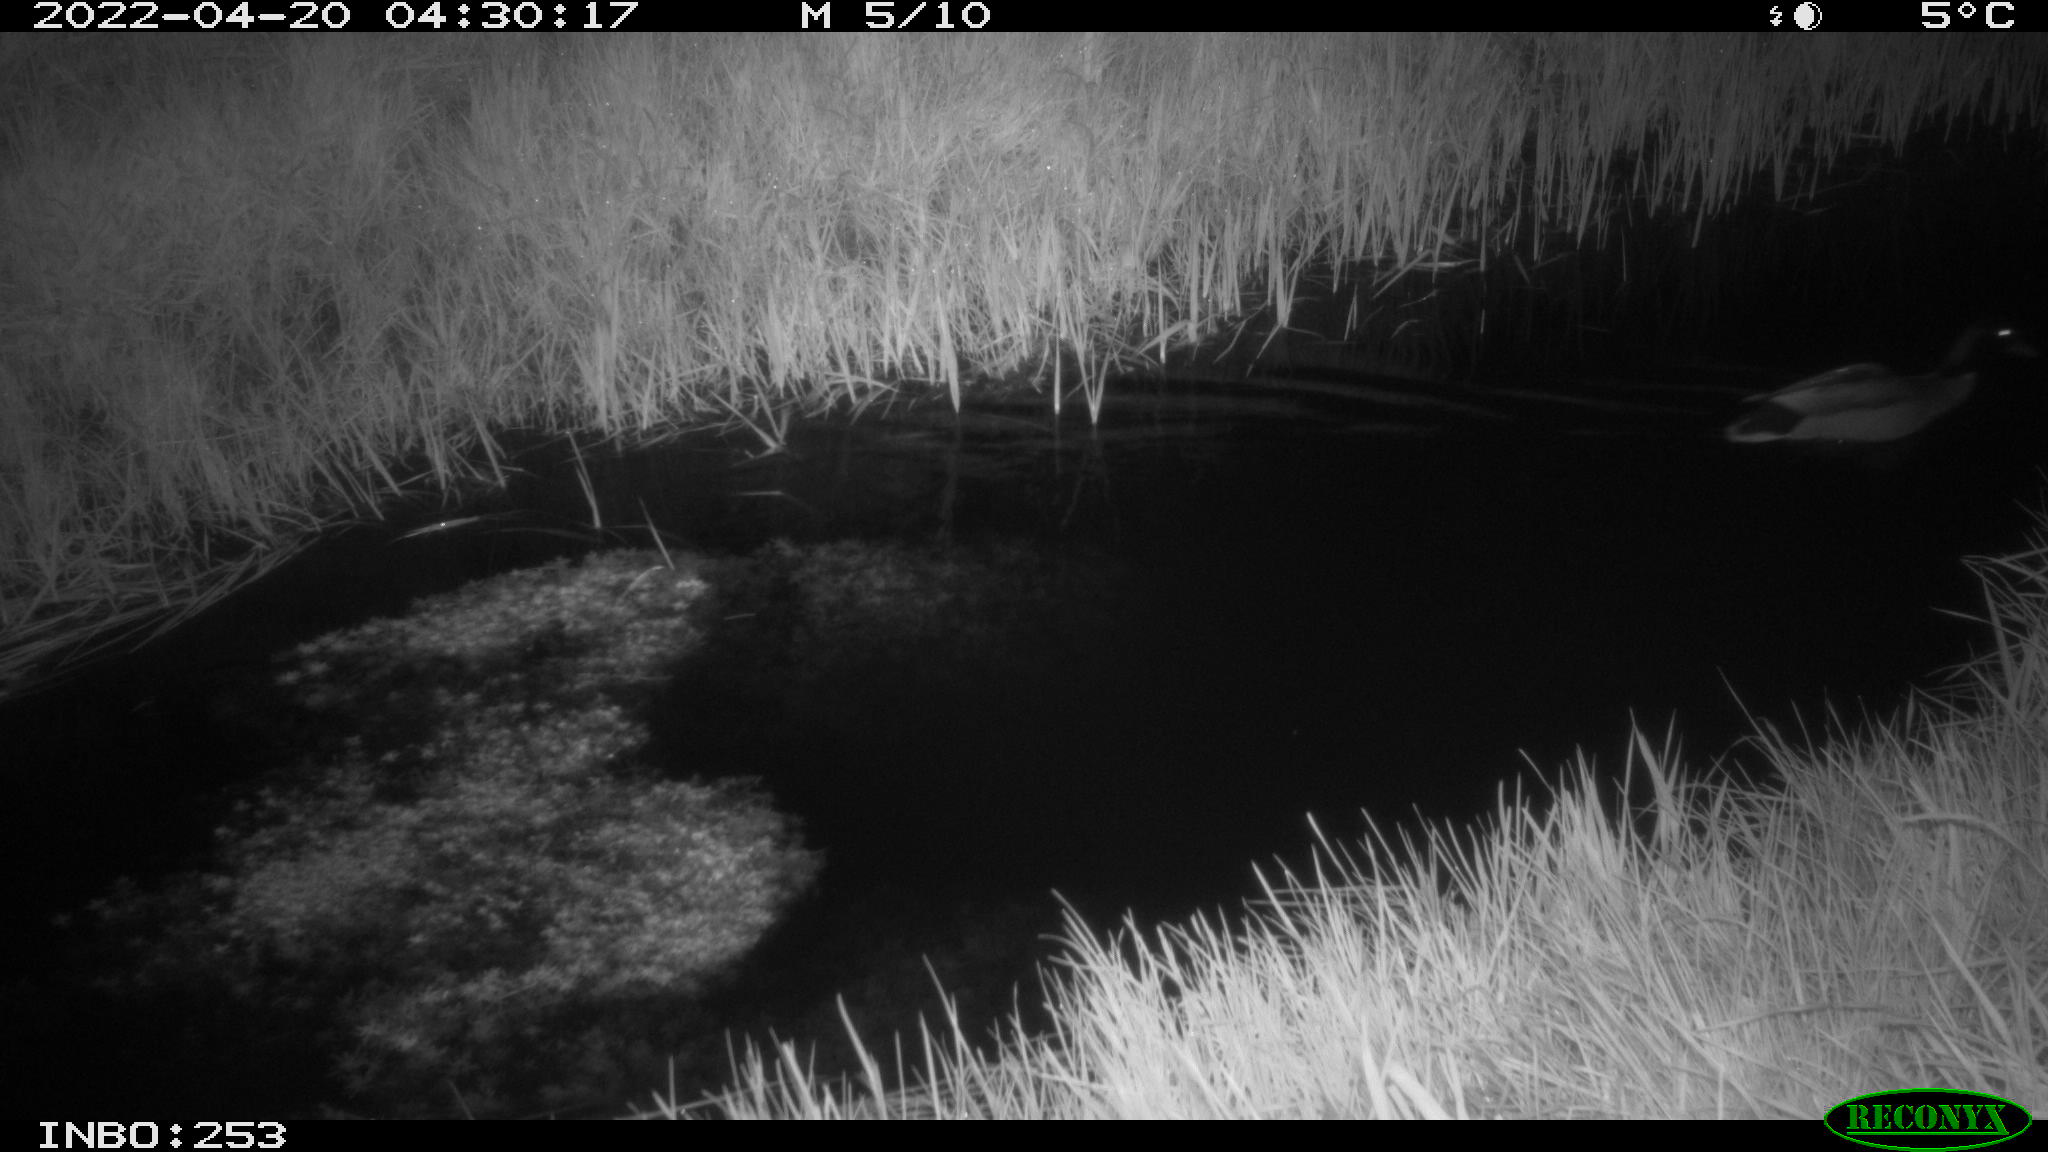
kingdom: Animalia
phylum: Chordata
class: Aves
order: Anseriformes
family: Anatidae
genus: Anas
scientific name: Anas platyrhynchos
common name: Mallard
